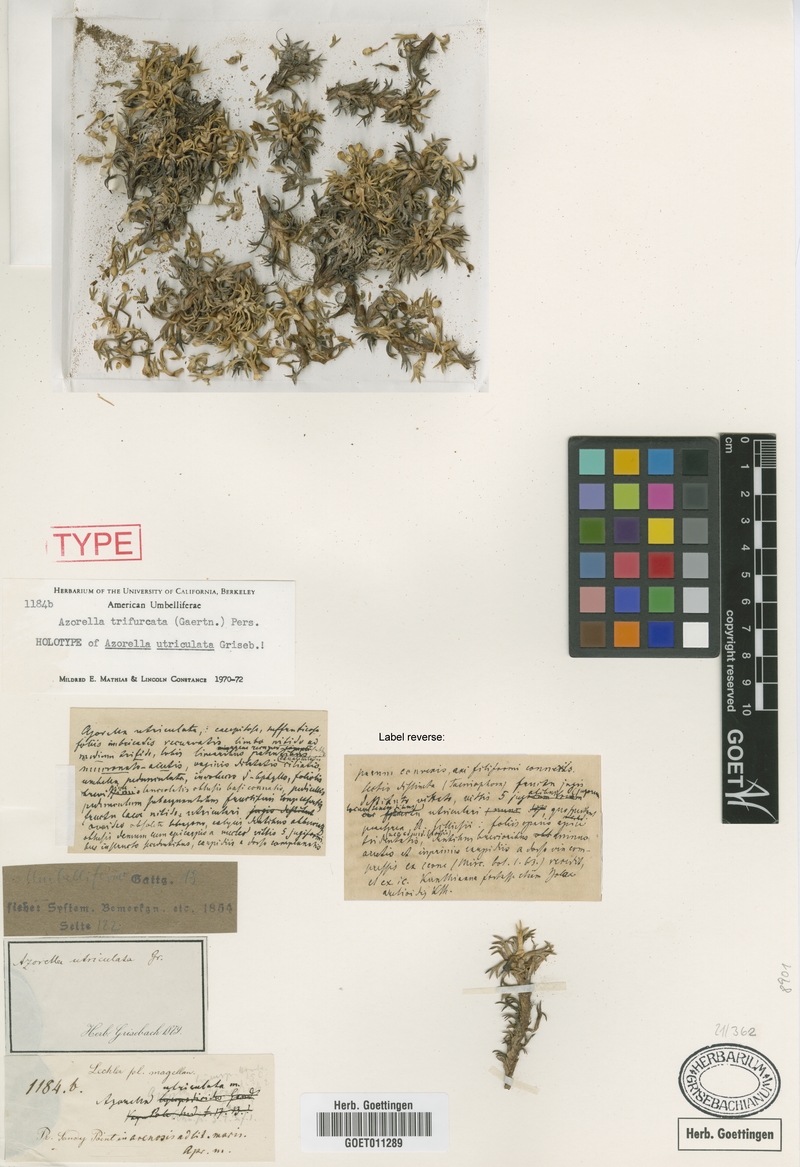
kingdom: Plantae
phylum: Tracheophyta
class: Magnoliopsida
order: Apiales
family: Apiaceae
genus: Azorella
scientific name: Azorella trifurcata
